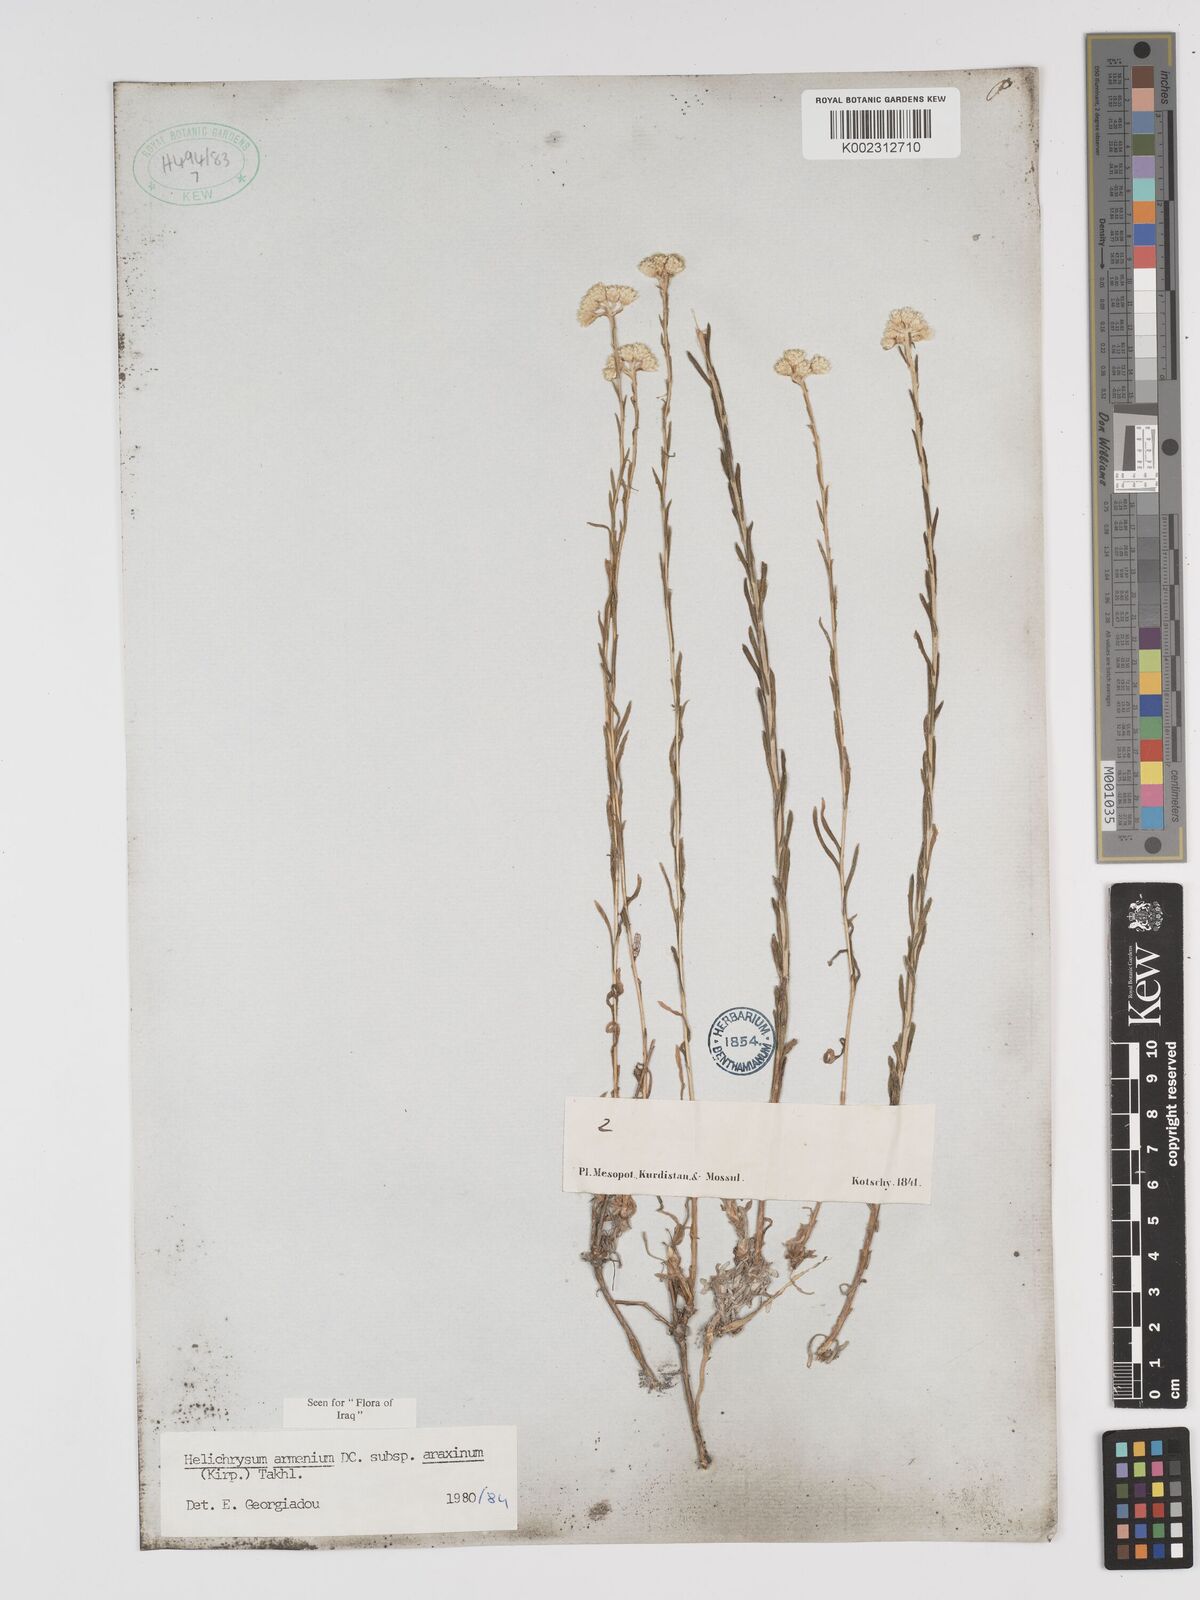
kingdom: Plantae
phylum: Tracheophyta
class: Magnoliopsida
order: Asterales
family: Asteraceae
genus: Helichrysum
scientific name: Helichrysum araxinum
